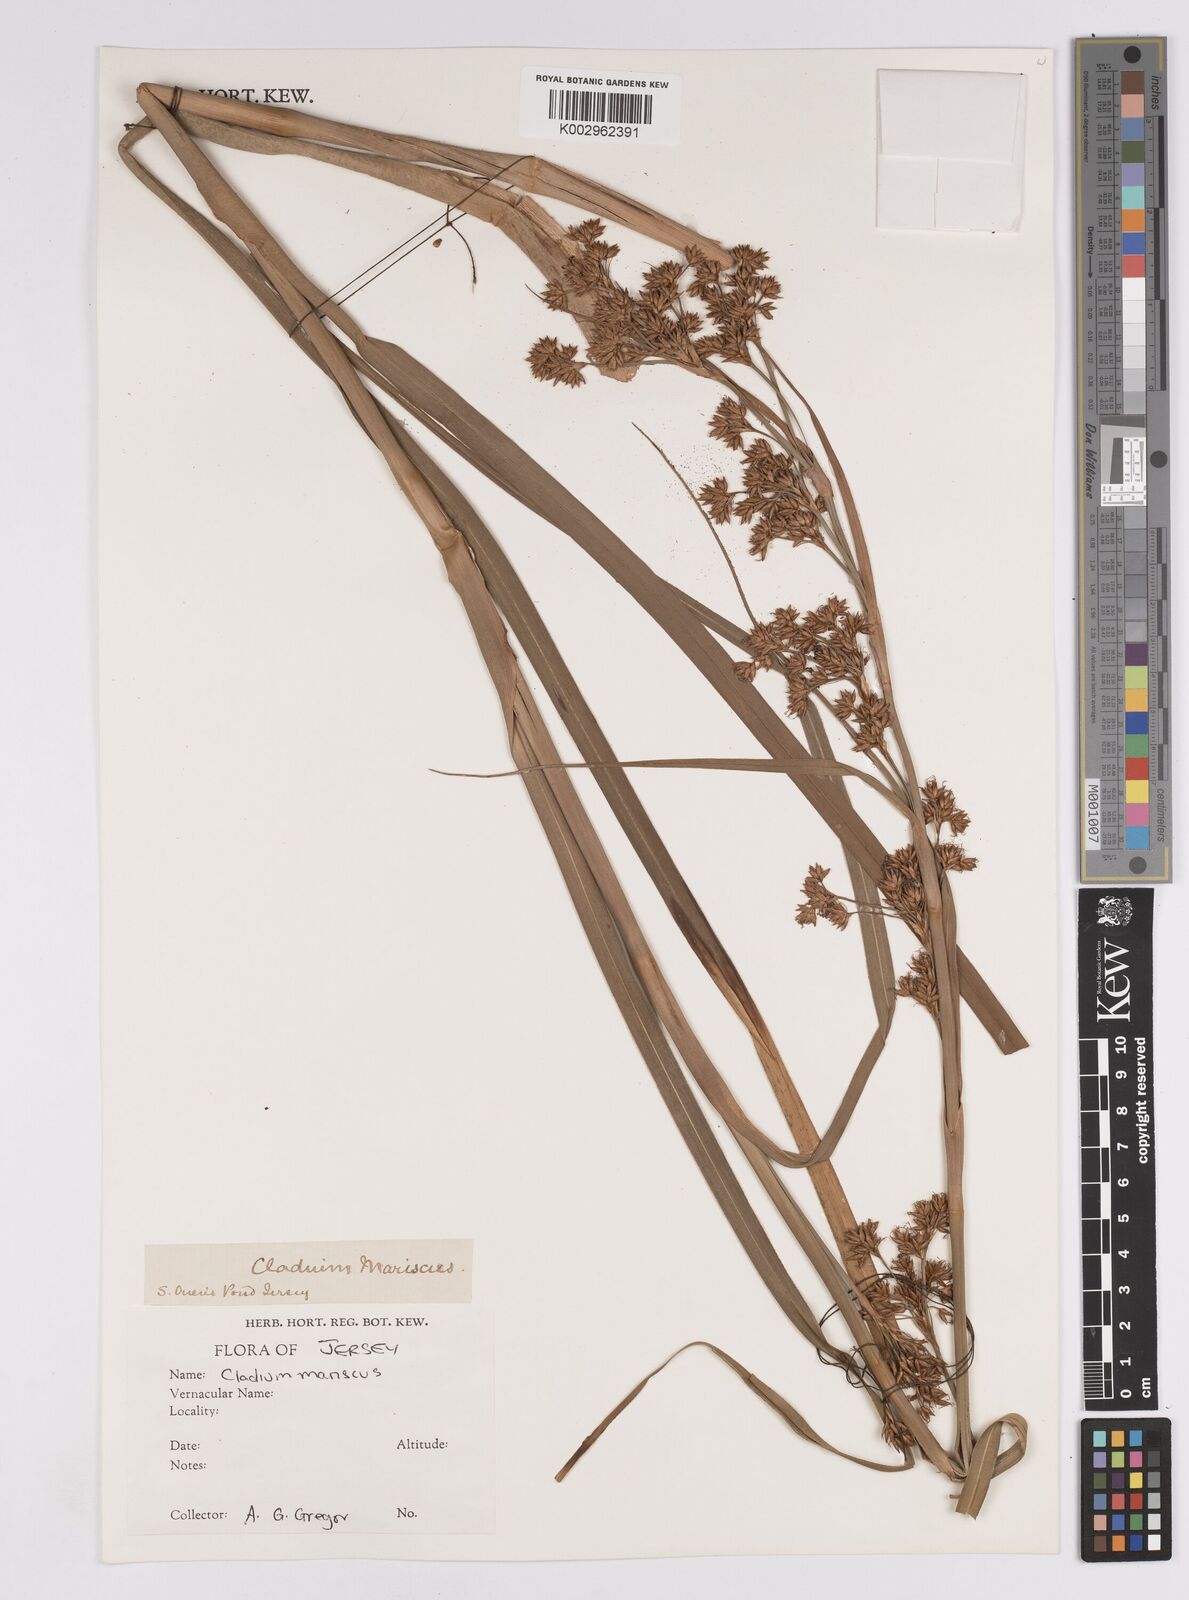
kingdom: Plantae
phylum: Tracheophyta
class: Liliopsida
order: Poales
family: Cyperaceae
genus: Cladium
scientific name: Cladium mariscus
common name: Great fen-sedge
